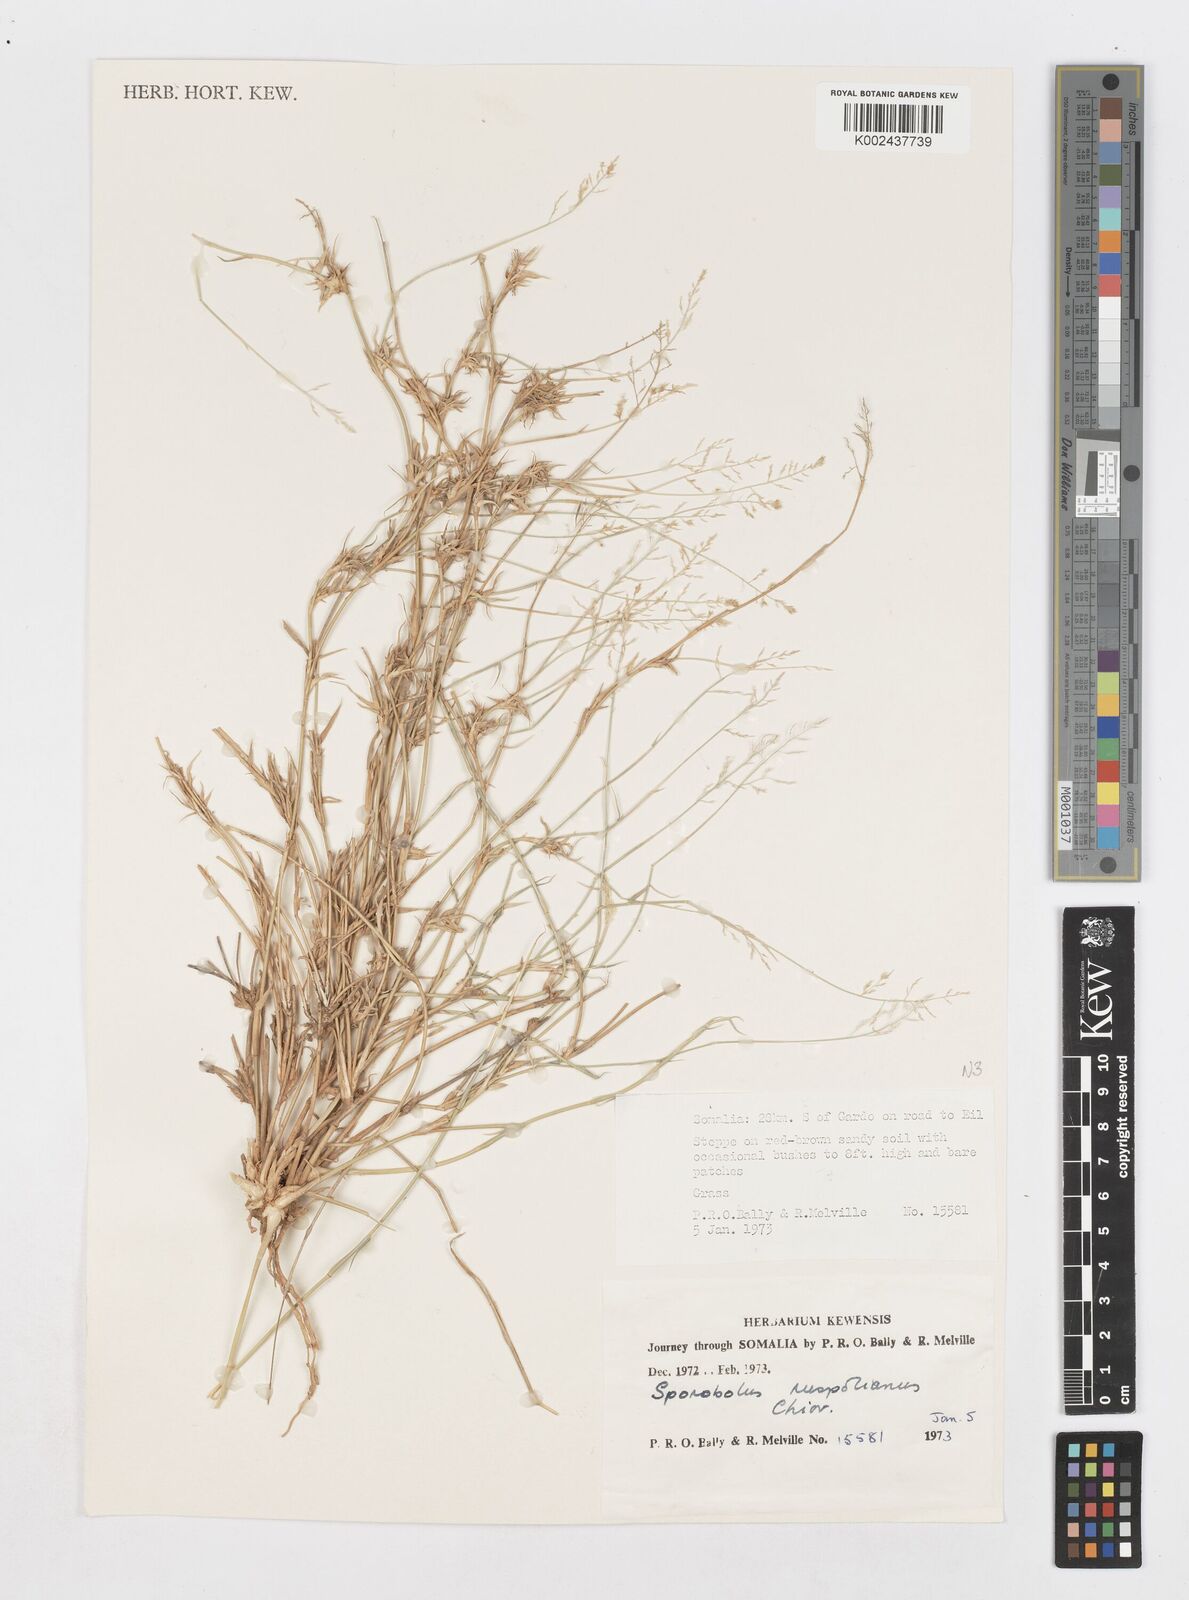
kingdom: Plantae
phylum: Tracheophyta
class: Liliopsida
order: Poales
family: Poaceae
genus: Sporobolus
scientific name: Sporobolus ruspolianus
